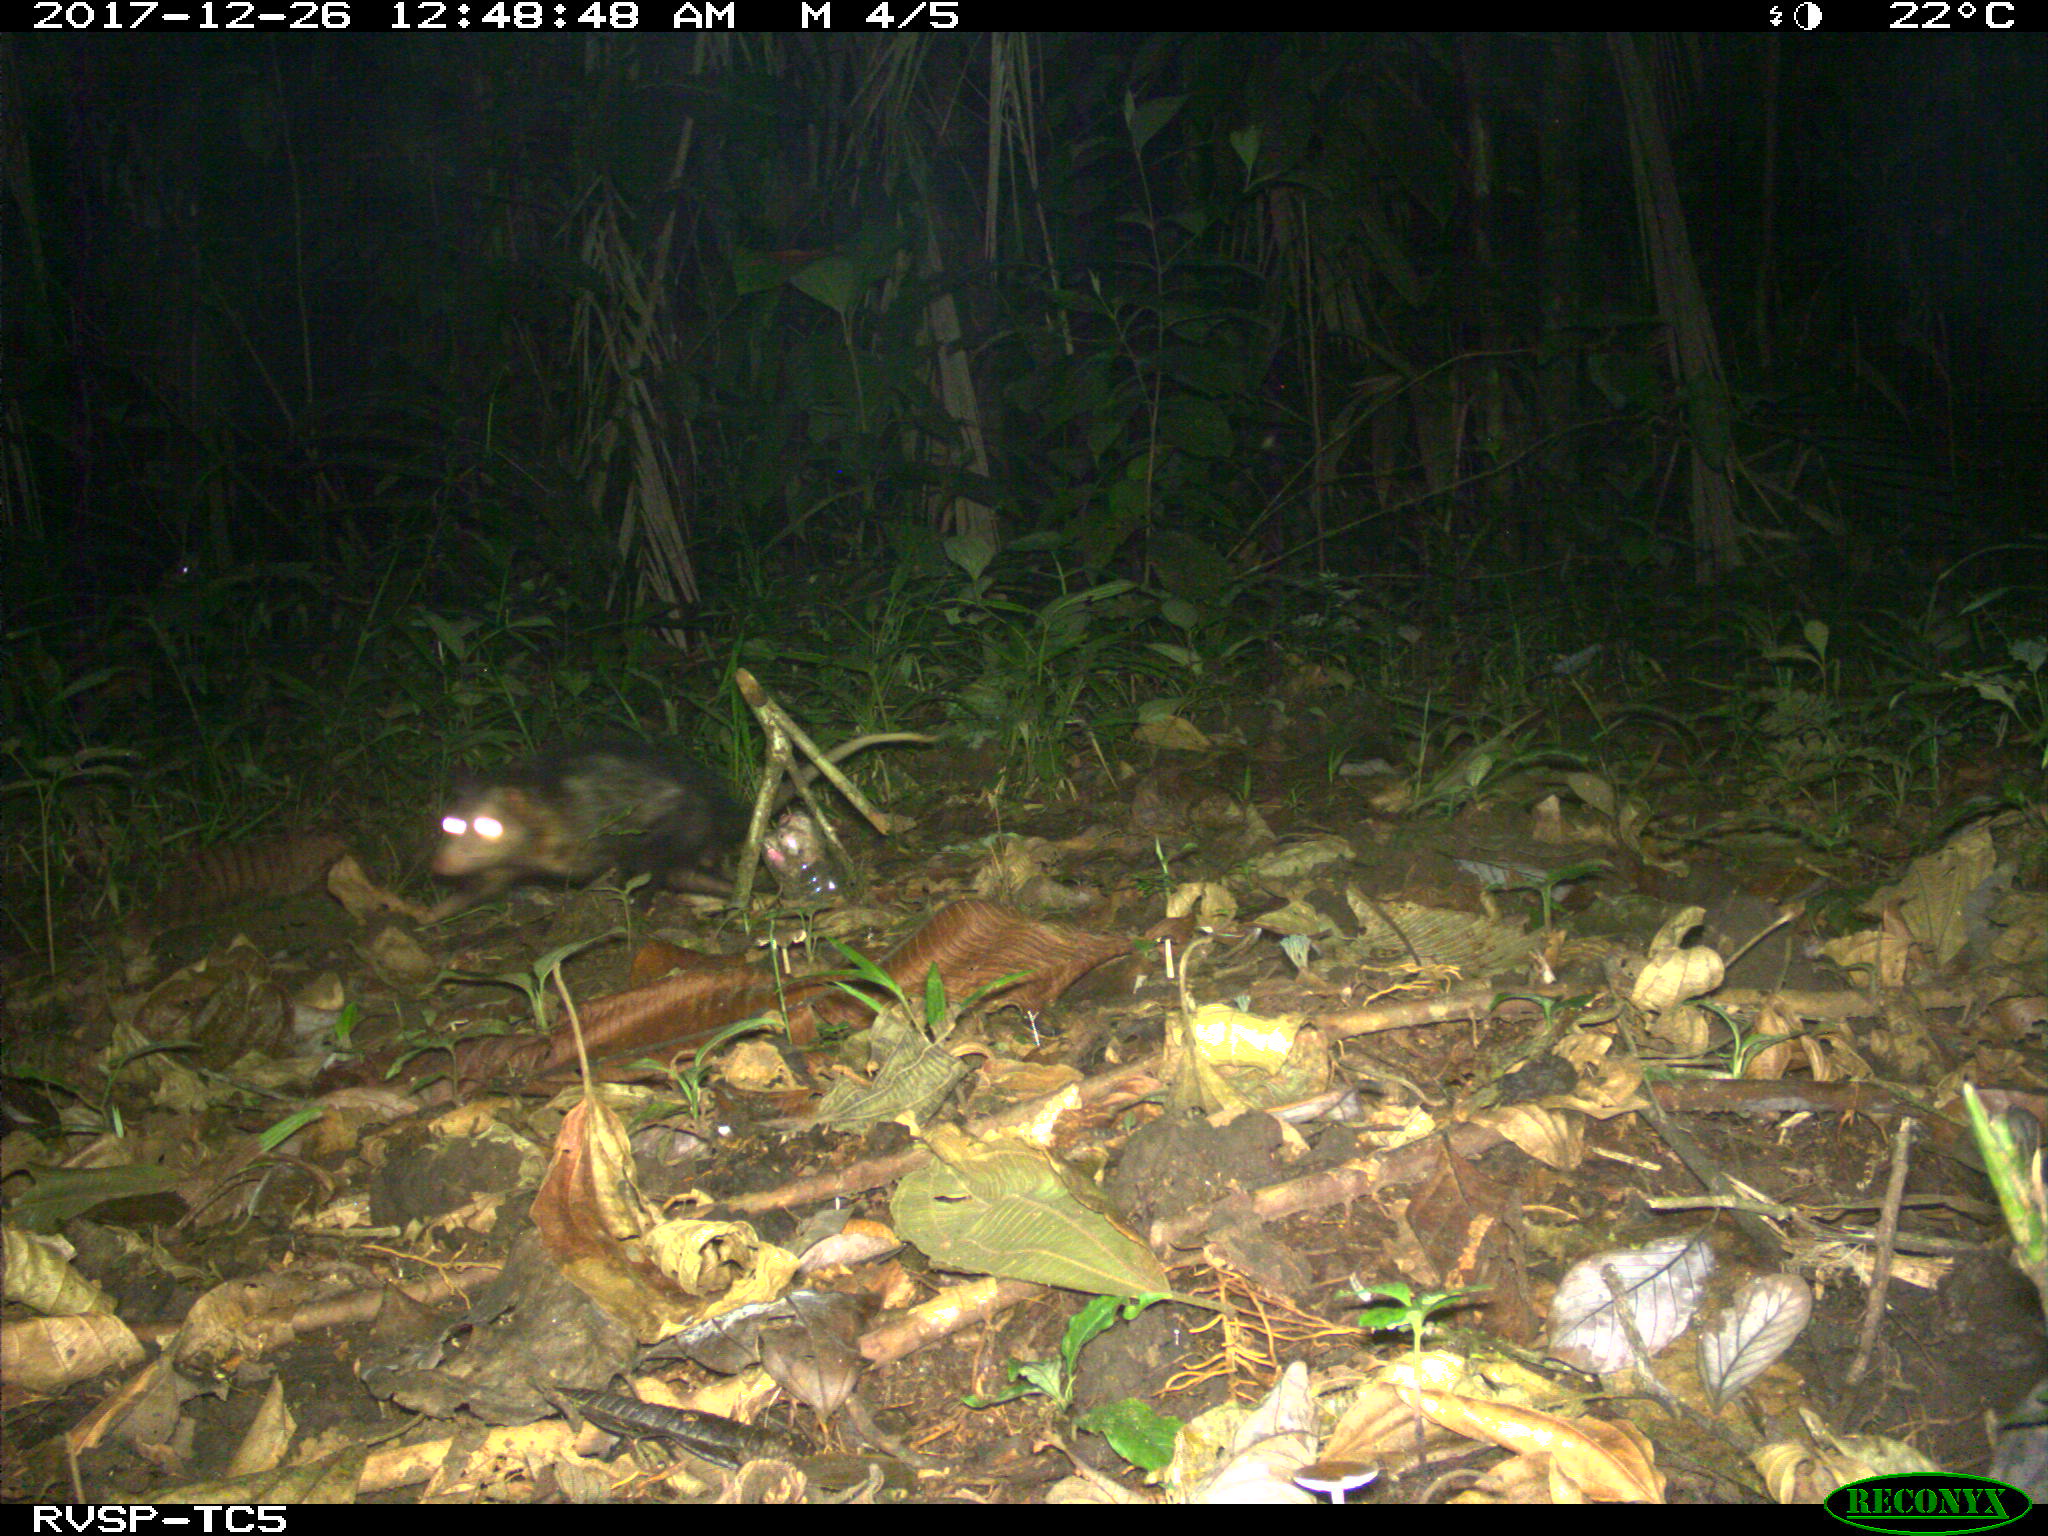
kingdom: Animalia
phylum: Chordata
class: Mammalia
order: Didelphimorphia
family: Didelphidae
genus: Didelphis
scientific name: Didelphis marsupialis
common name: Common opossum
